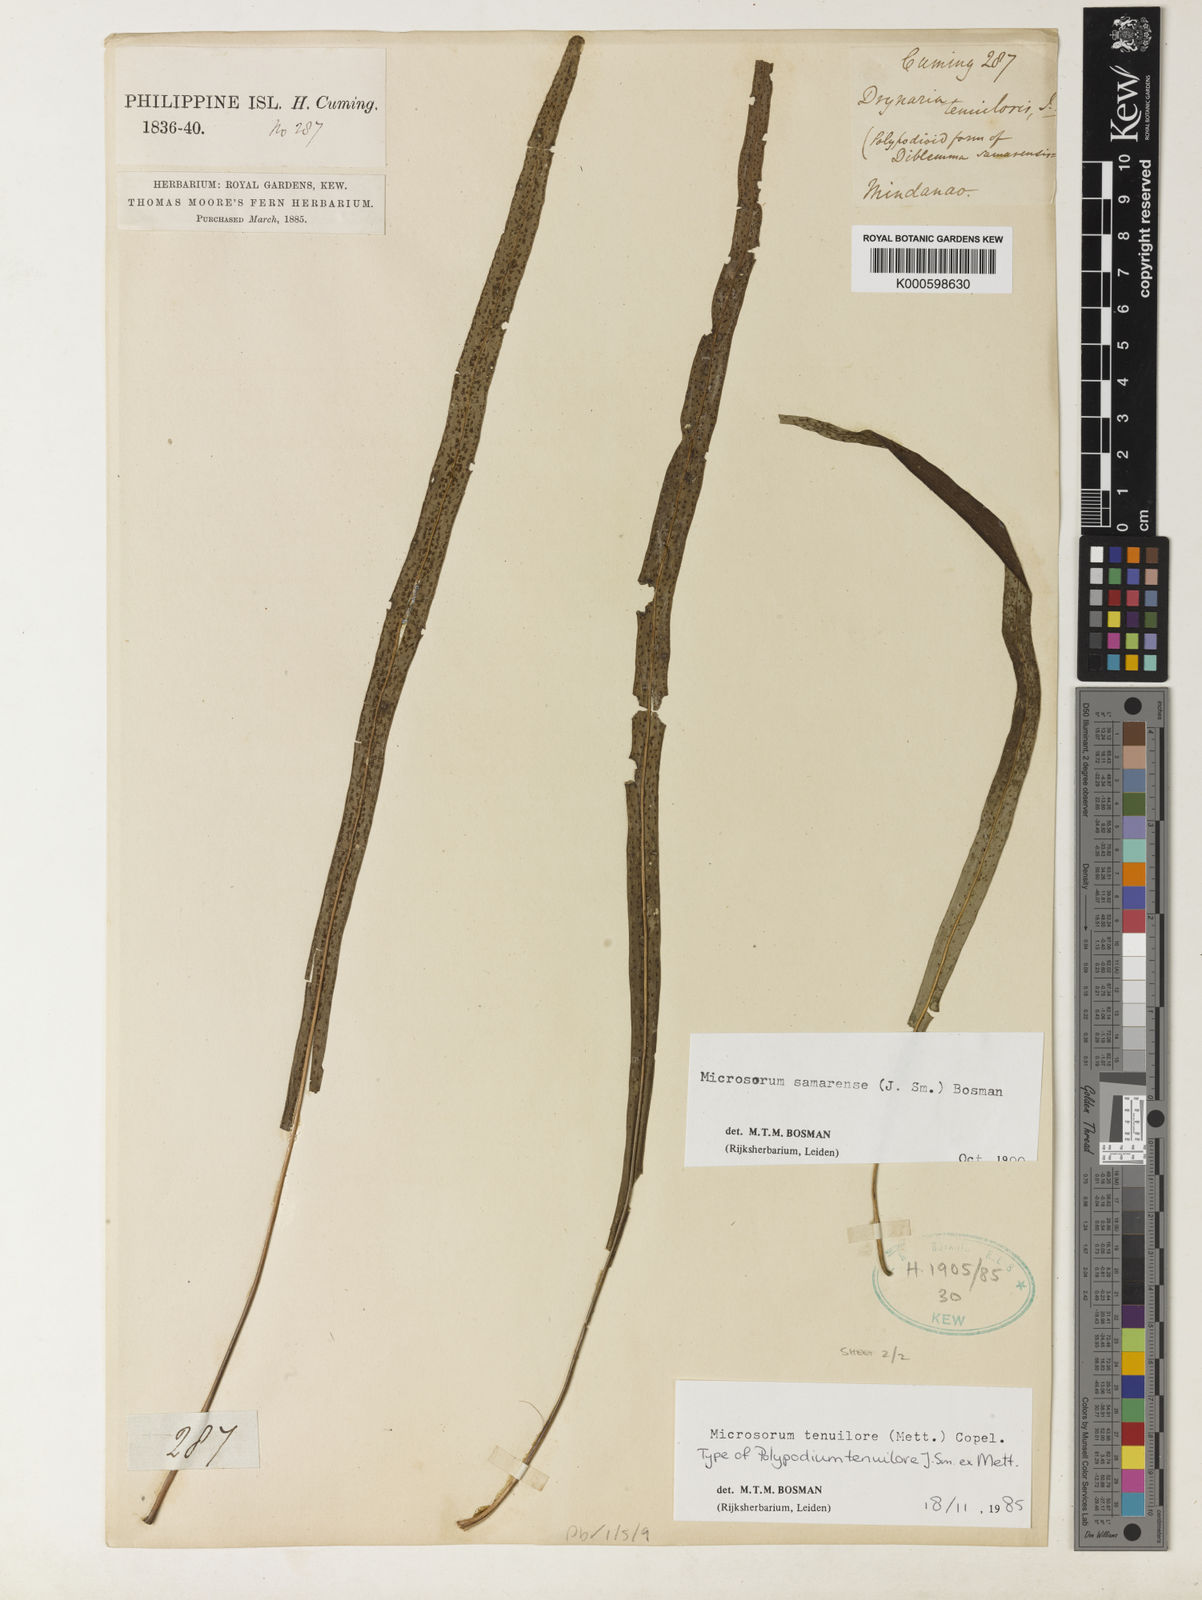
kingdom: Plantae
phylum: Tracheophyta
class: Polypodiopsida
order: Polypodiales
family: Polypodiaceae
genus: Microsorum
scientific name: Microsorum samarense
